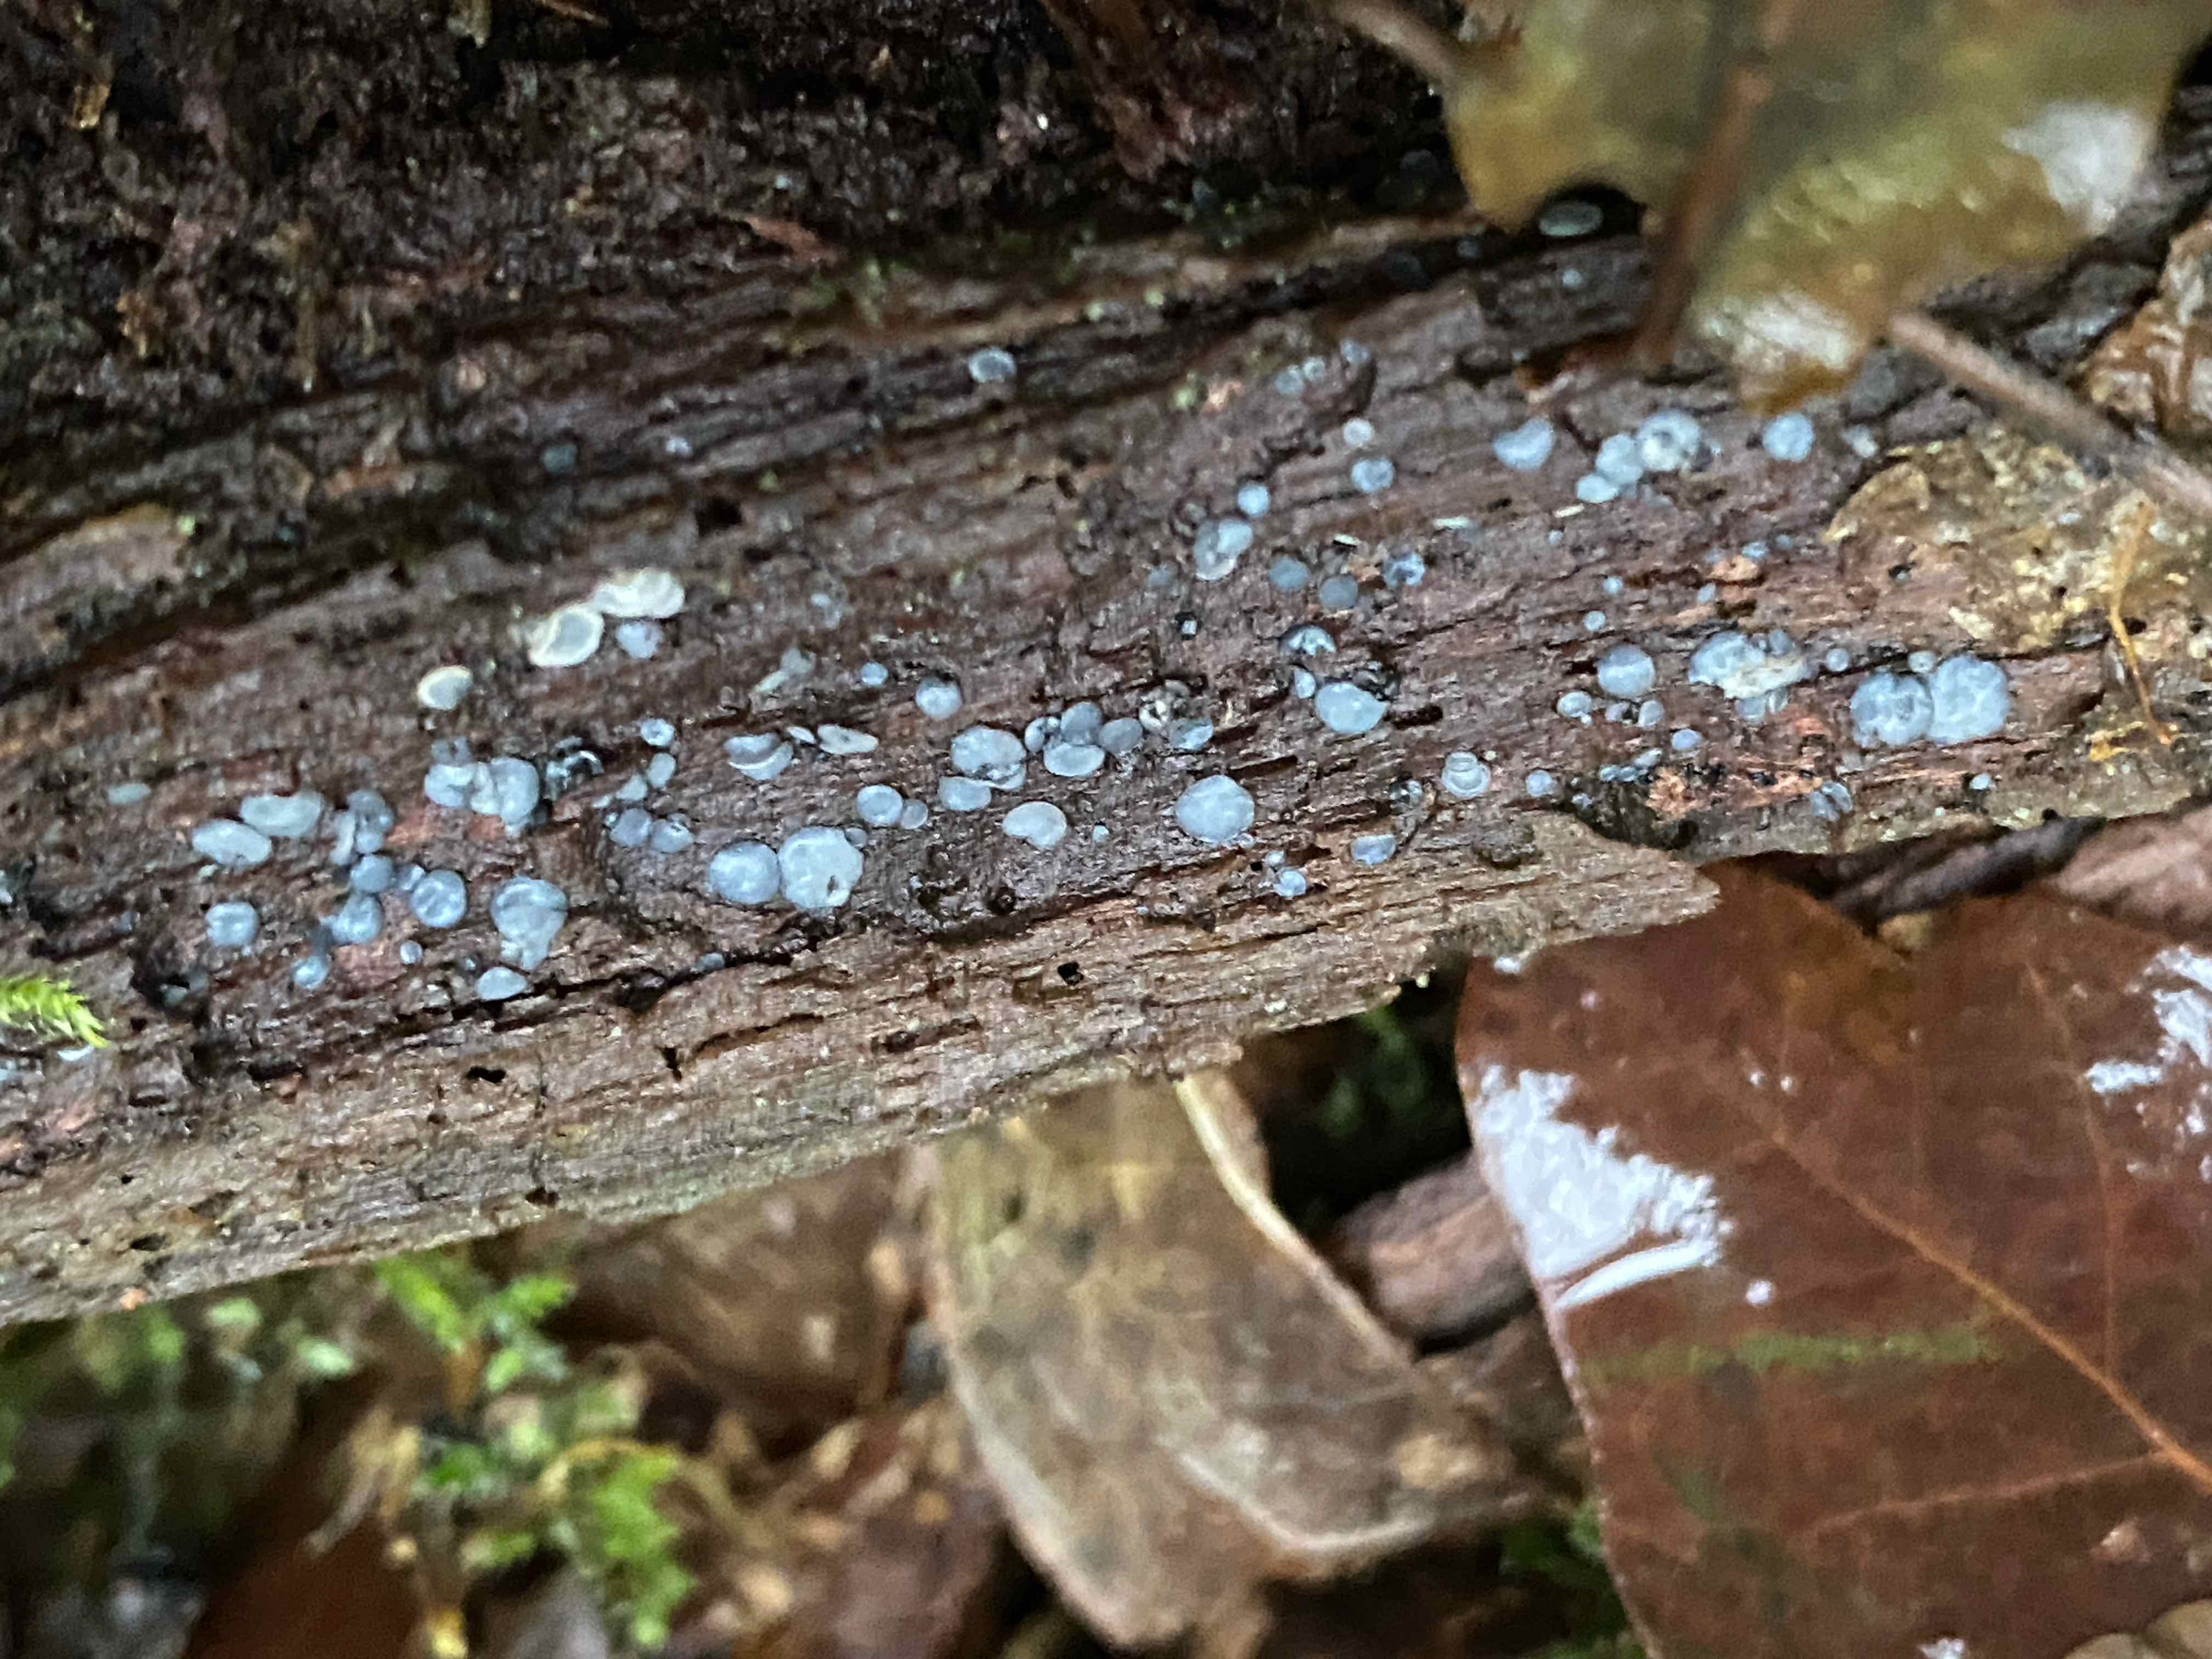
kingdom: Fungi
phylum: Ascomycota
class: Leotiomycetes
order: Helotiales
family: Mollisiaceae
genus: Mollisia
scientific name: Mollisia
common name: gråskive
